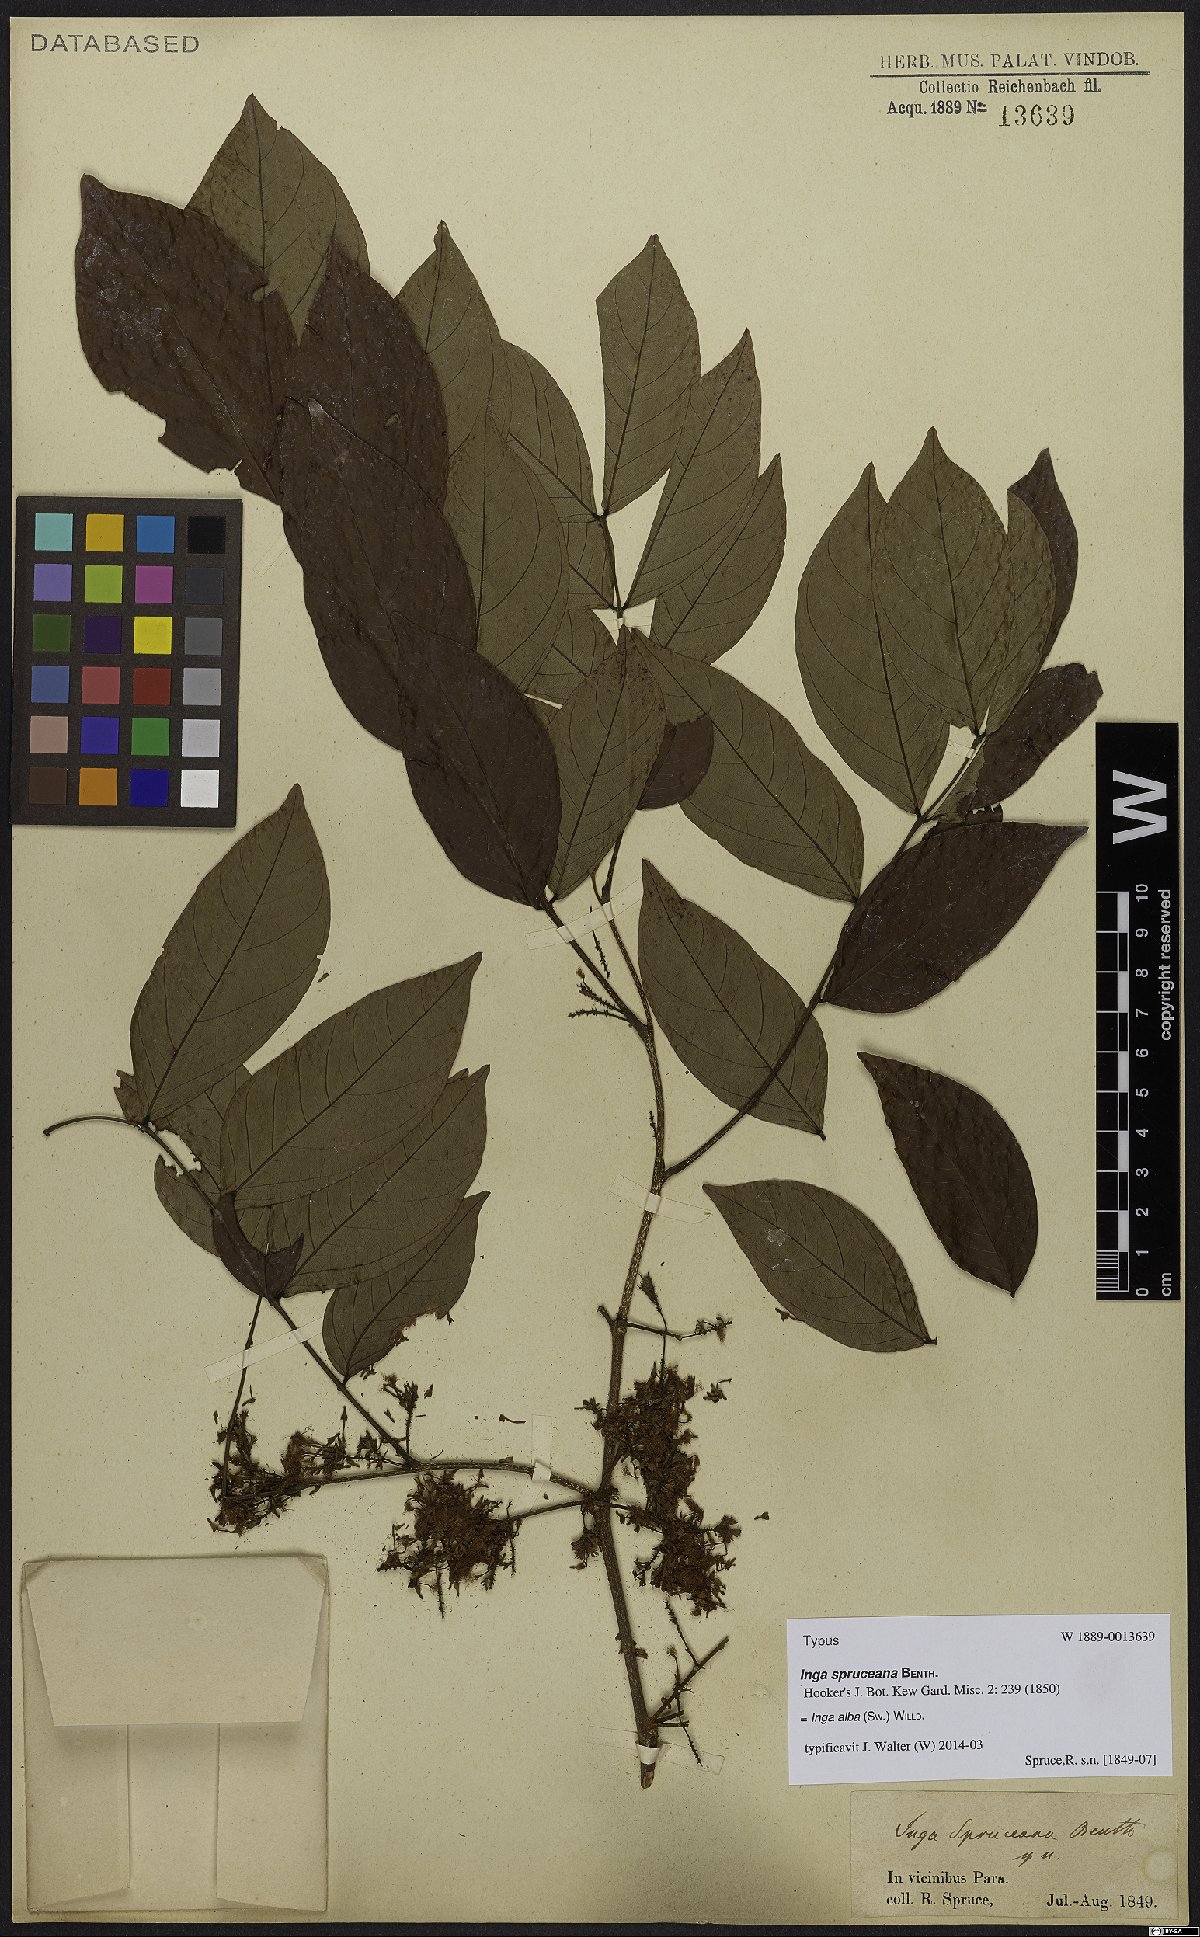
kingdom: Plantae
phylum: Tracheophyta
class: Magnoliopsida
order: Fabales
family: Fabaceae
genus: Inga
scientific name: Inga alba
